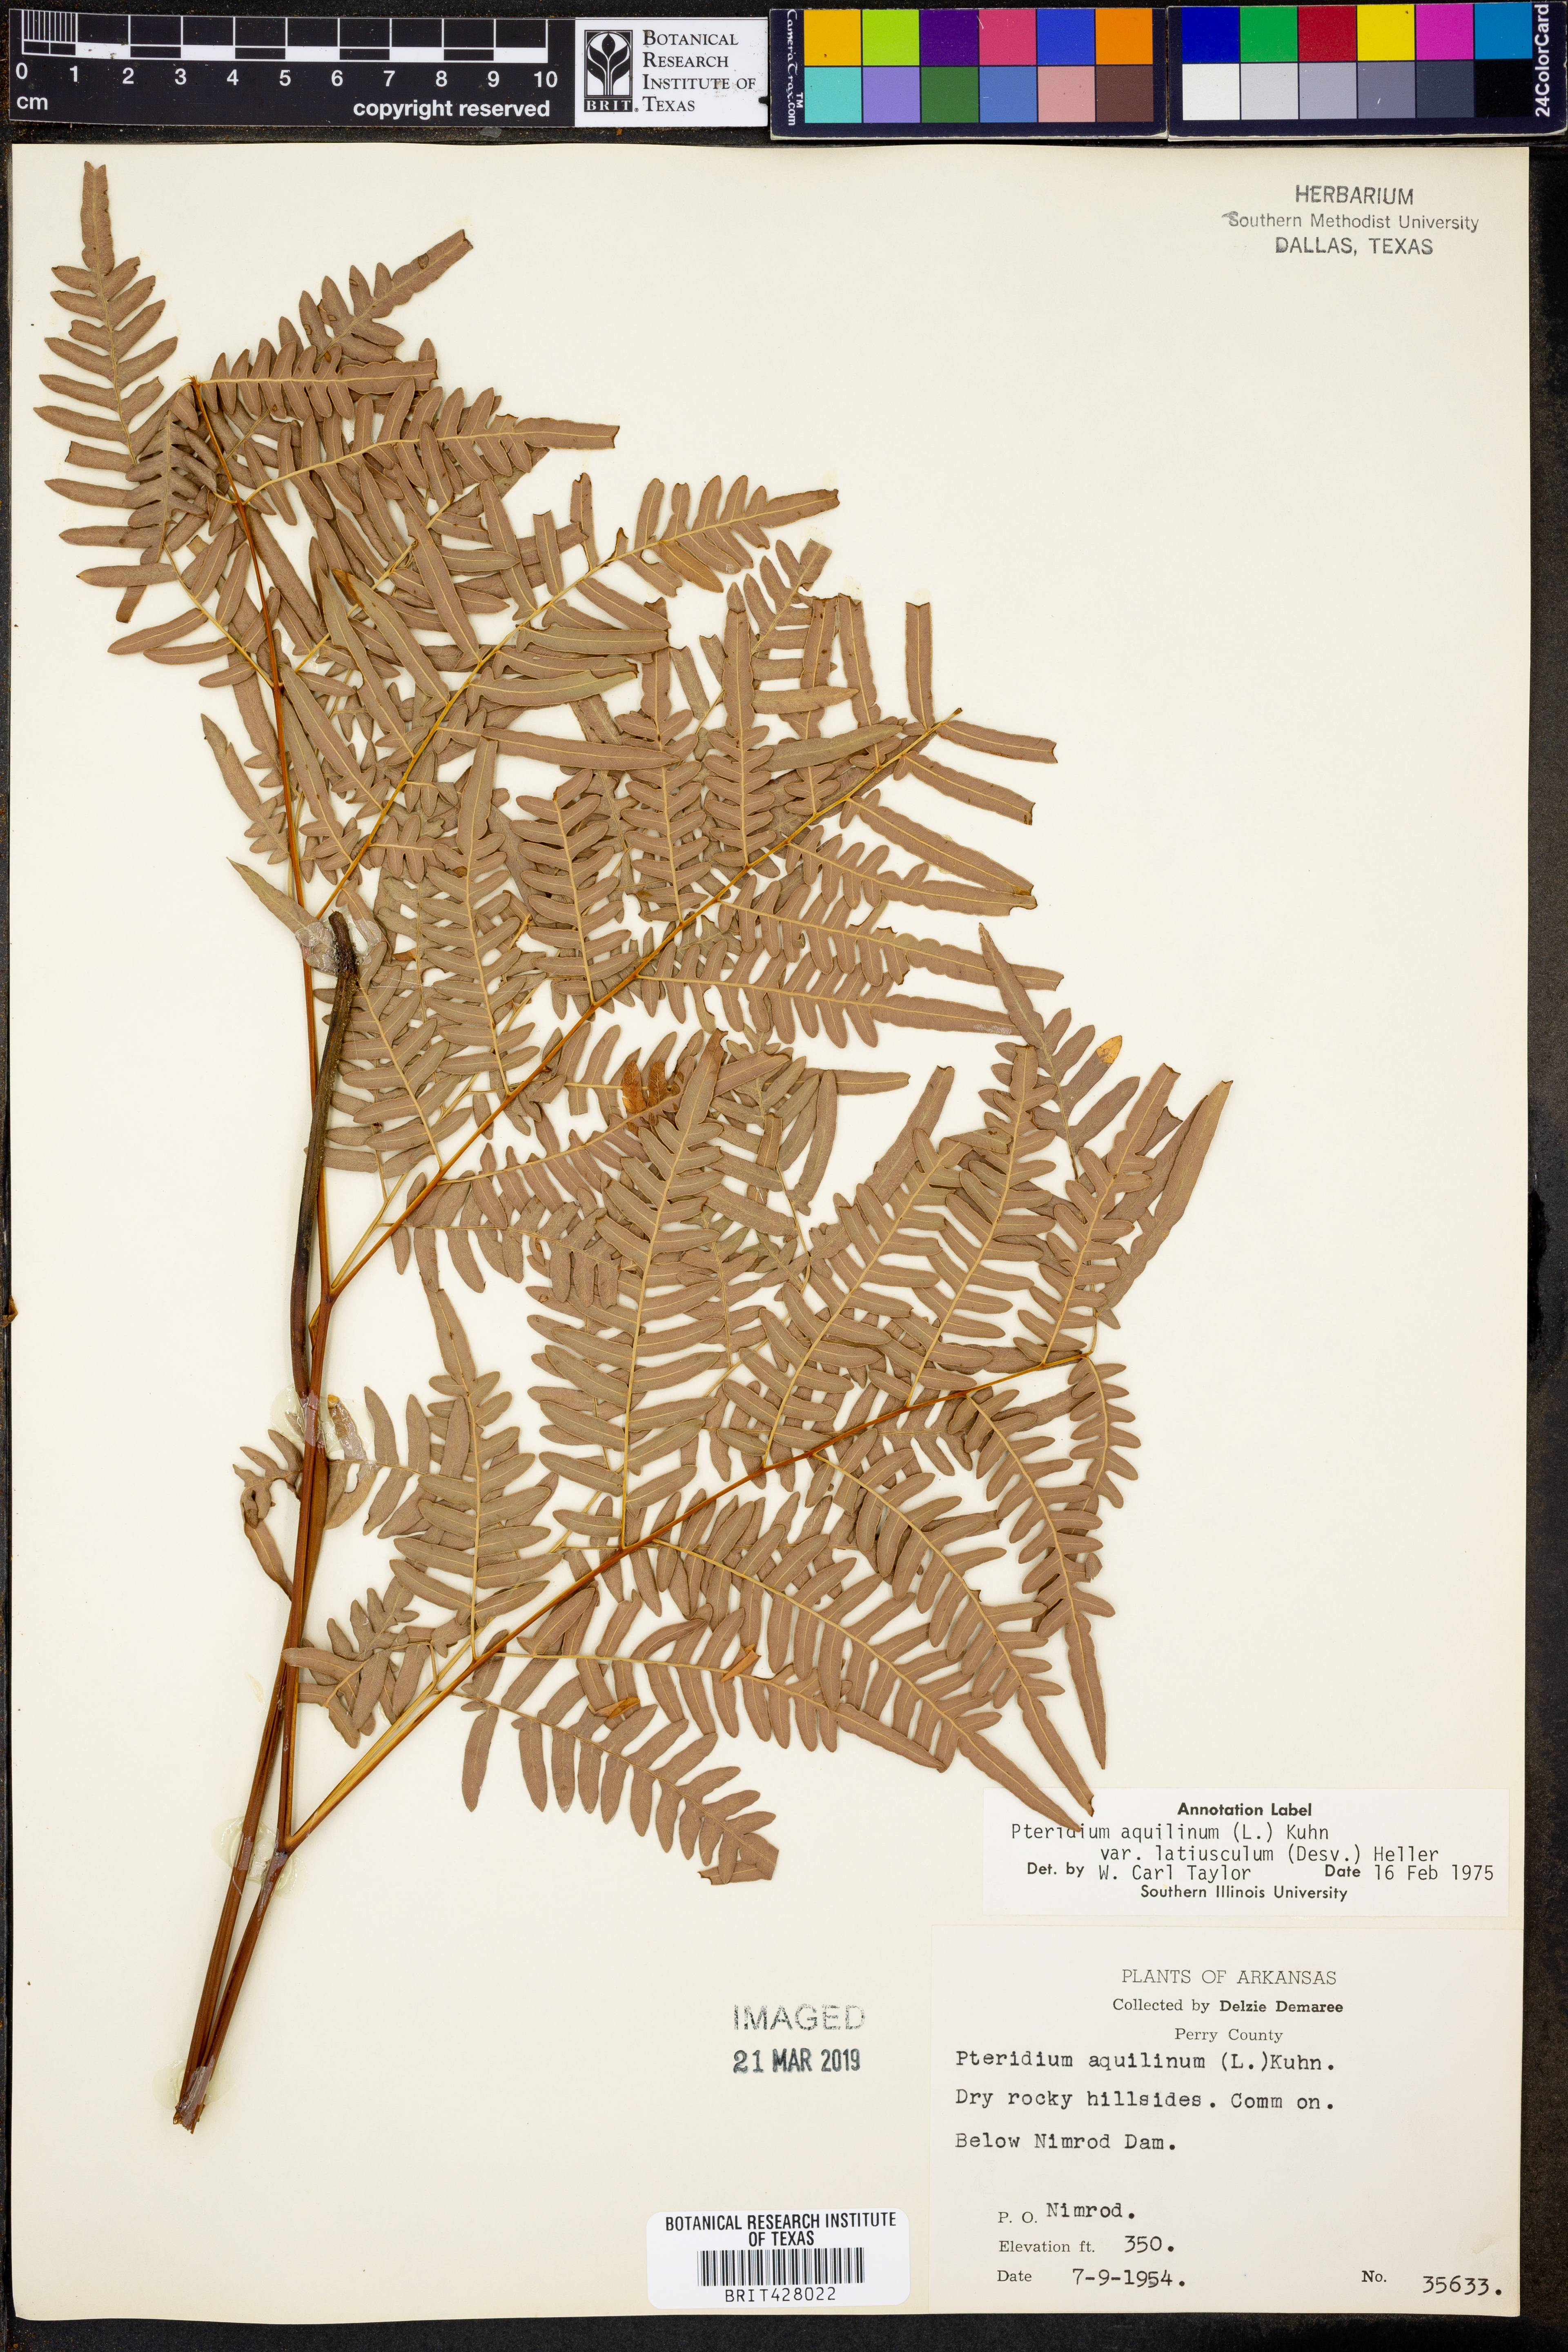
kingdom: Plantae
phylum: Tracheophyta
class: Polypodiopsida
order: Polypodiales
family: Dennstaedtiaceae
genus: Pteridium
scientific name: Pteridium aquilinum
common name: Bracken
